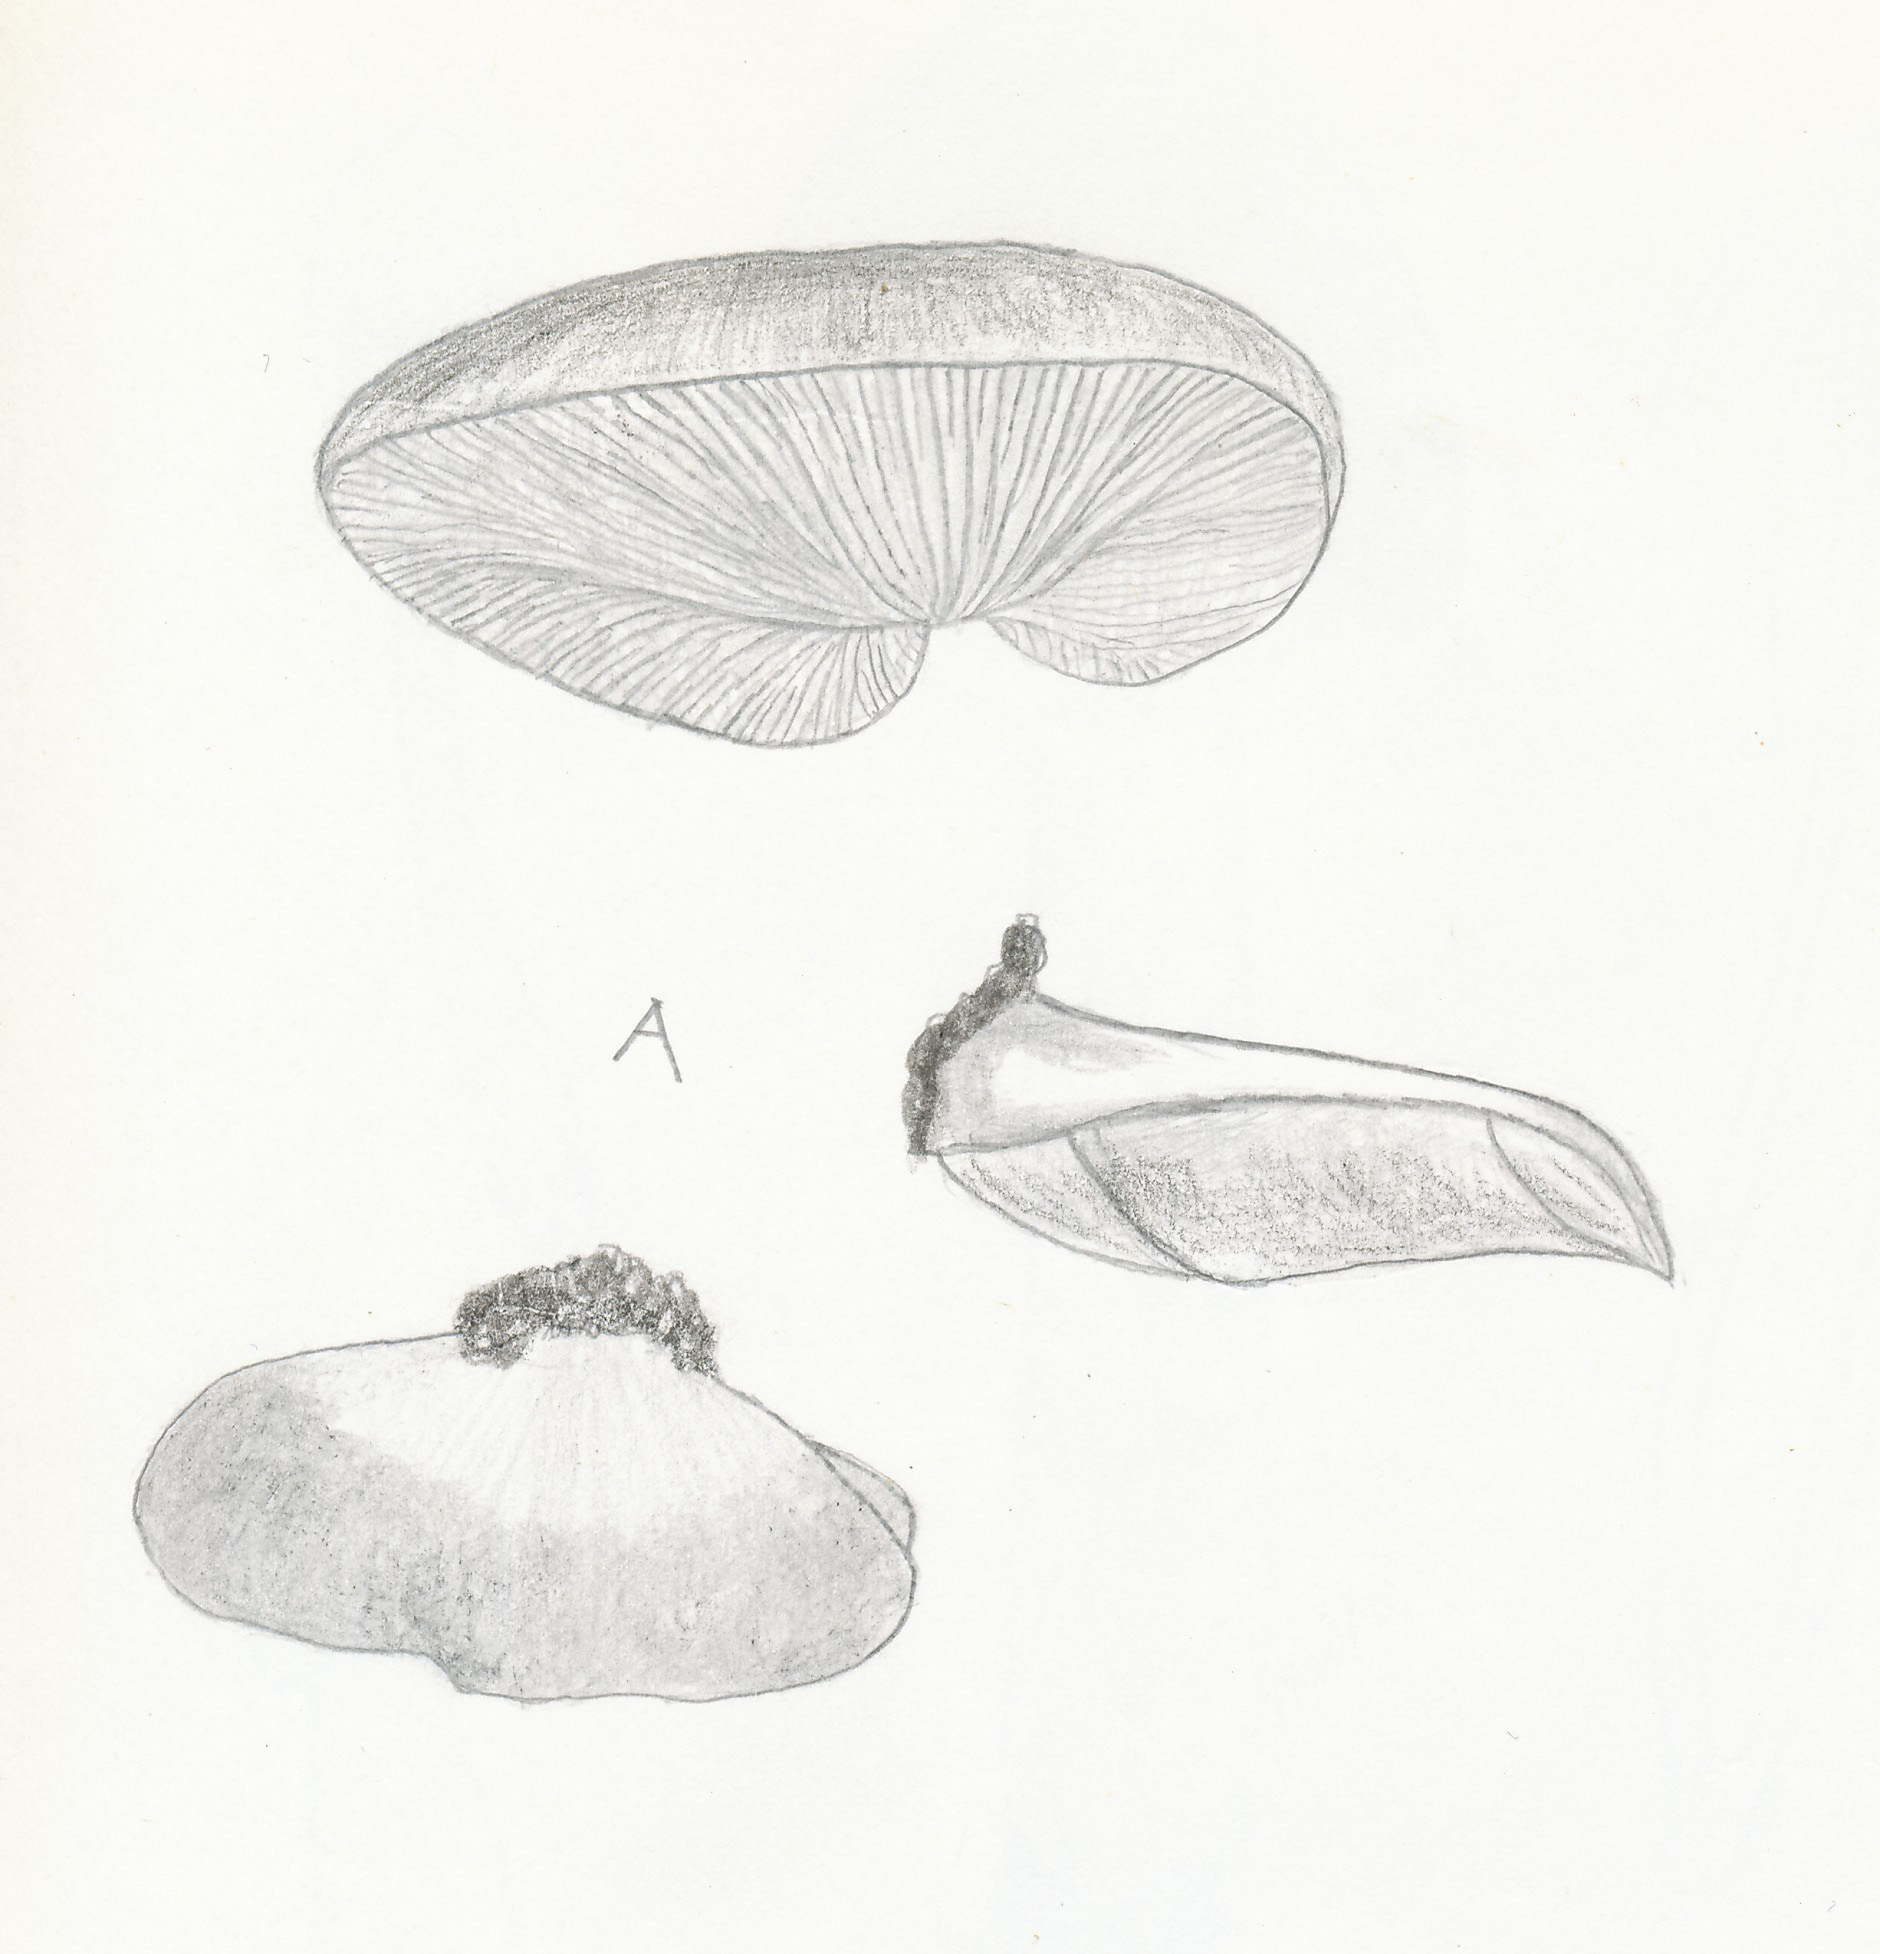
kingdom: Fungi
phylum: Basidiomycota
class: Agaricomycetes
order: Agaricales
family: Bolbitiaceae
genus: Conocybe
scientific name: Conocybe mesospora
